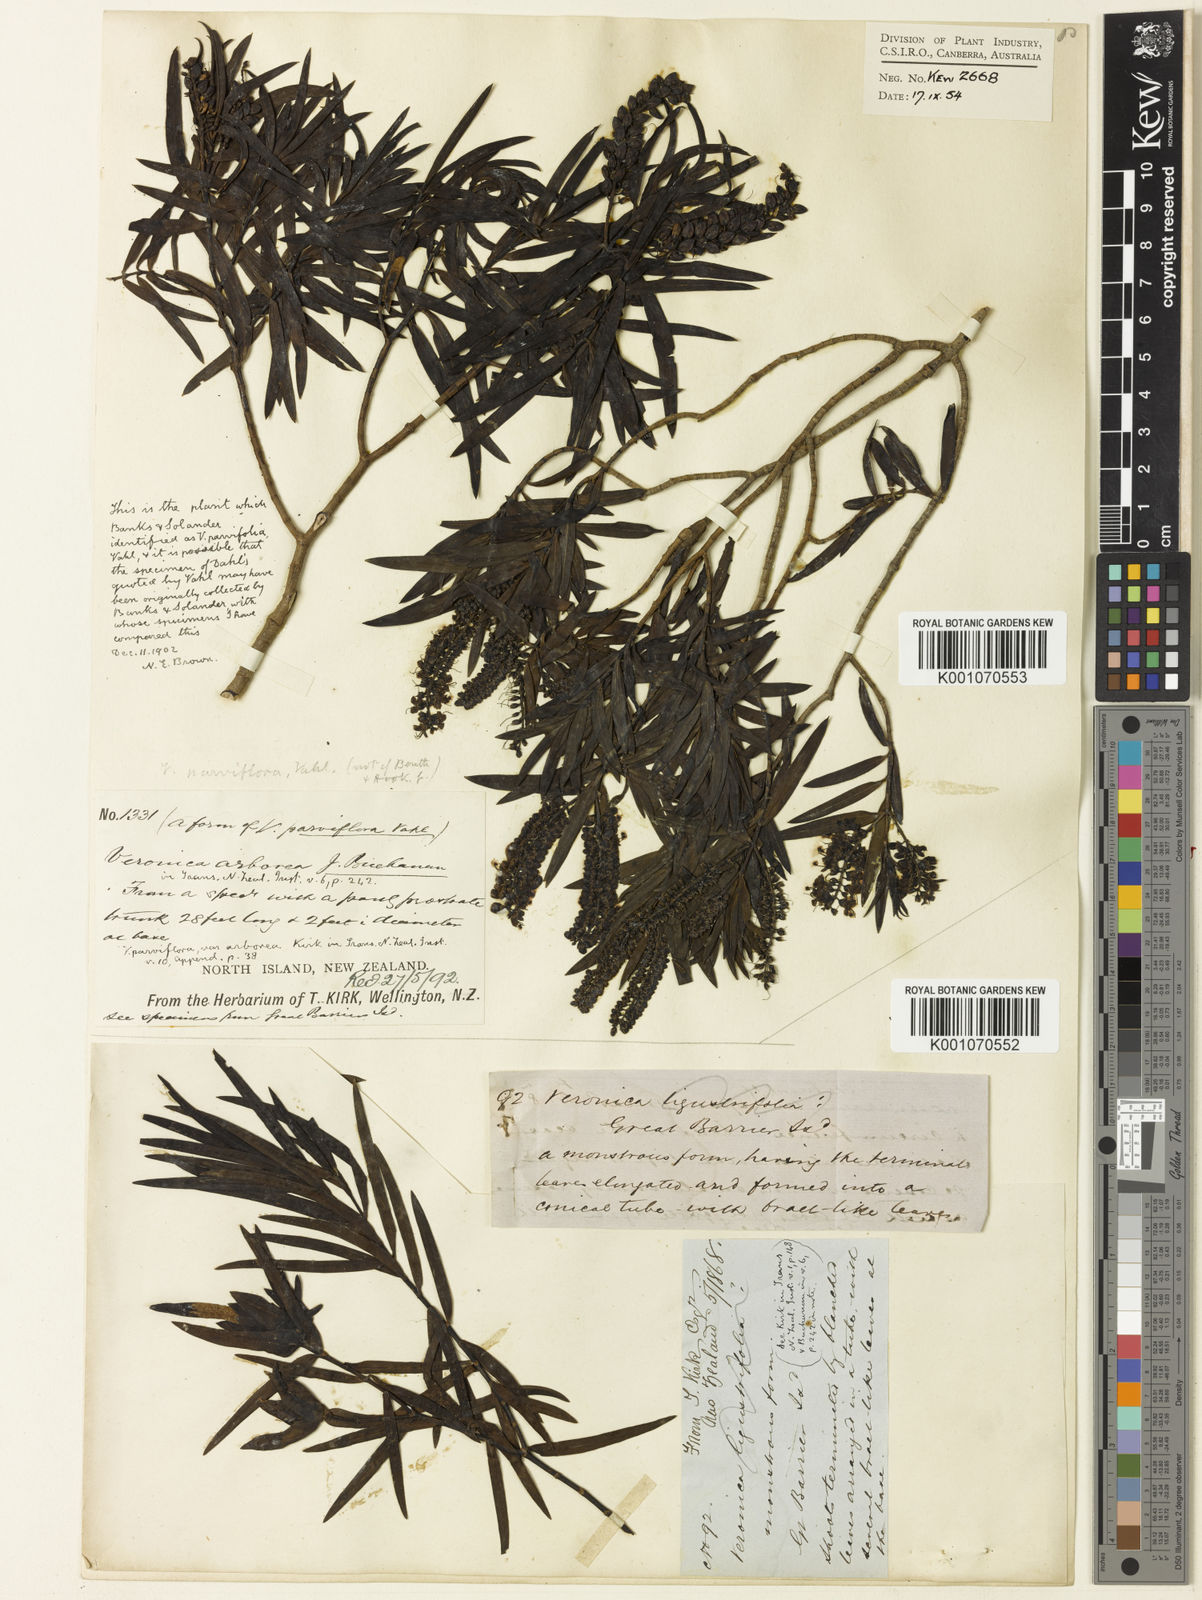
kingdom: Plantae
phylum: Tracheophyta
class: Magnoliopsida
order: Lamiales
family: Plantaginaceae
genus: Veronica
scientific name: Veronica
